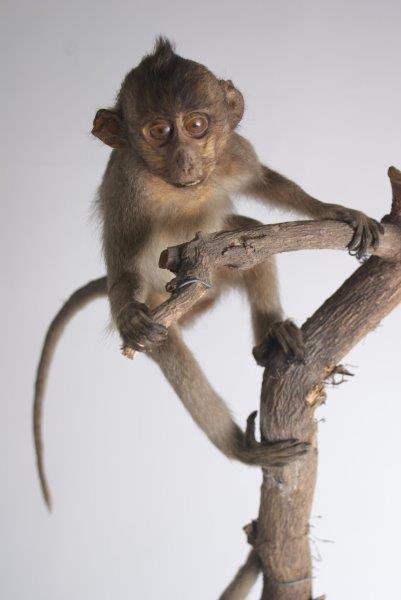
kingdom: Animalia
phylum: Chordata
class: Mammalia
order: Primates
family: Cercopithecidae
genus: Macaca
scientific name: Macaca
